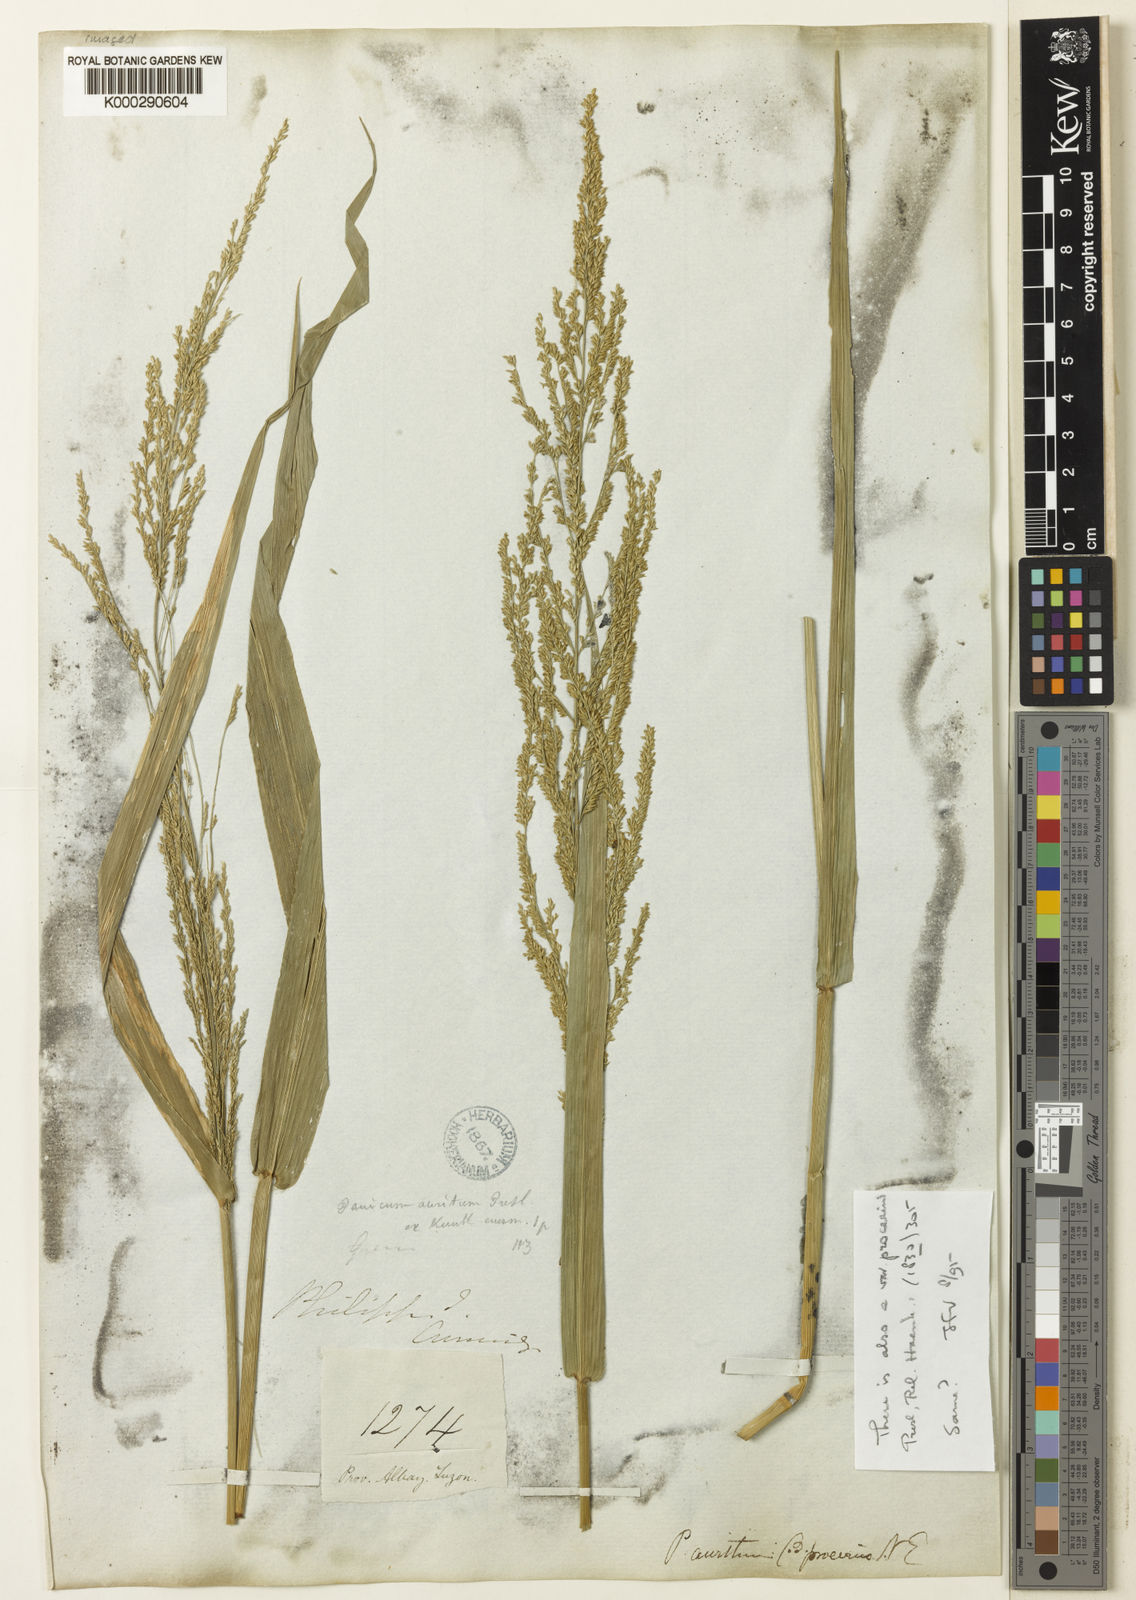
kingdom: Plantae
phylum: Tracheophyta
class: Liliopsida
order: Poales
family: Poaceae
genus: Hymenachne
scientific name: Hymenachne aurita
